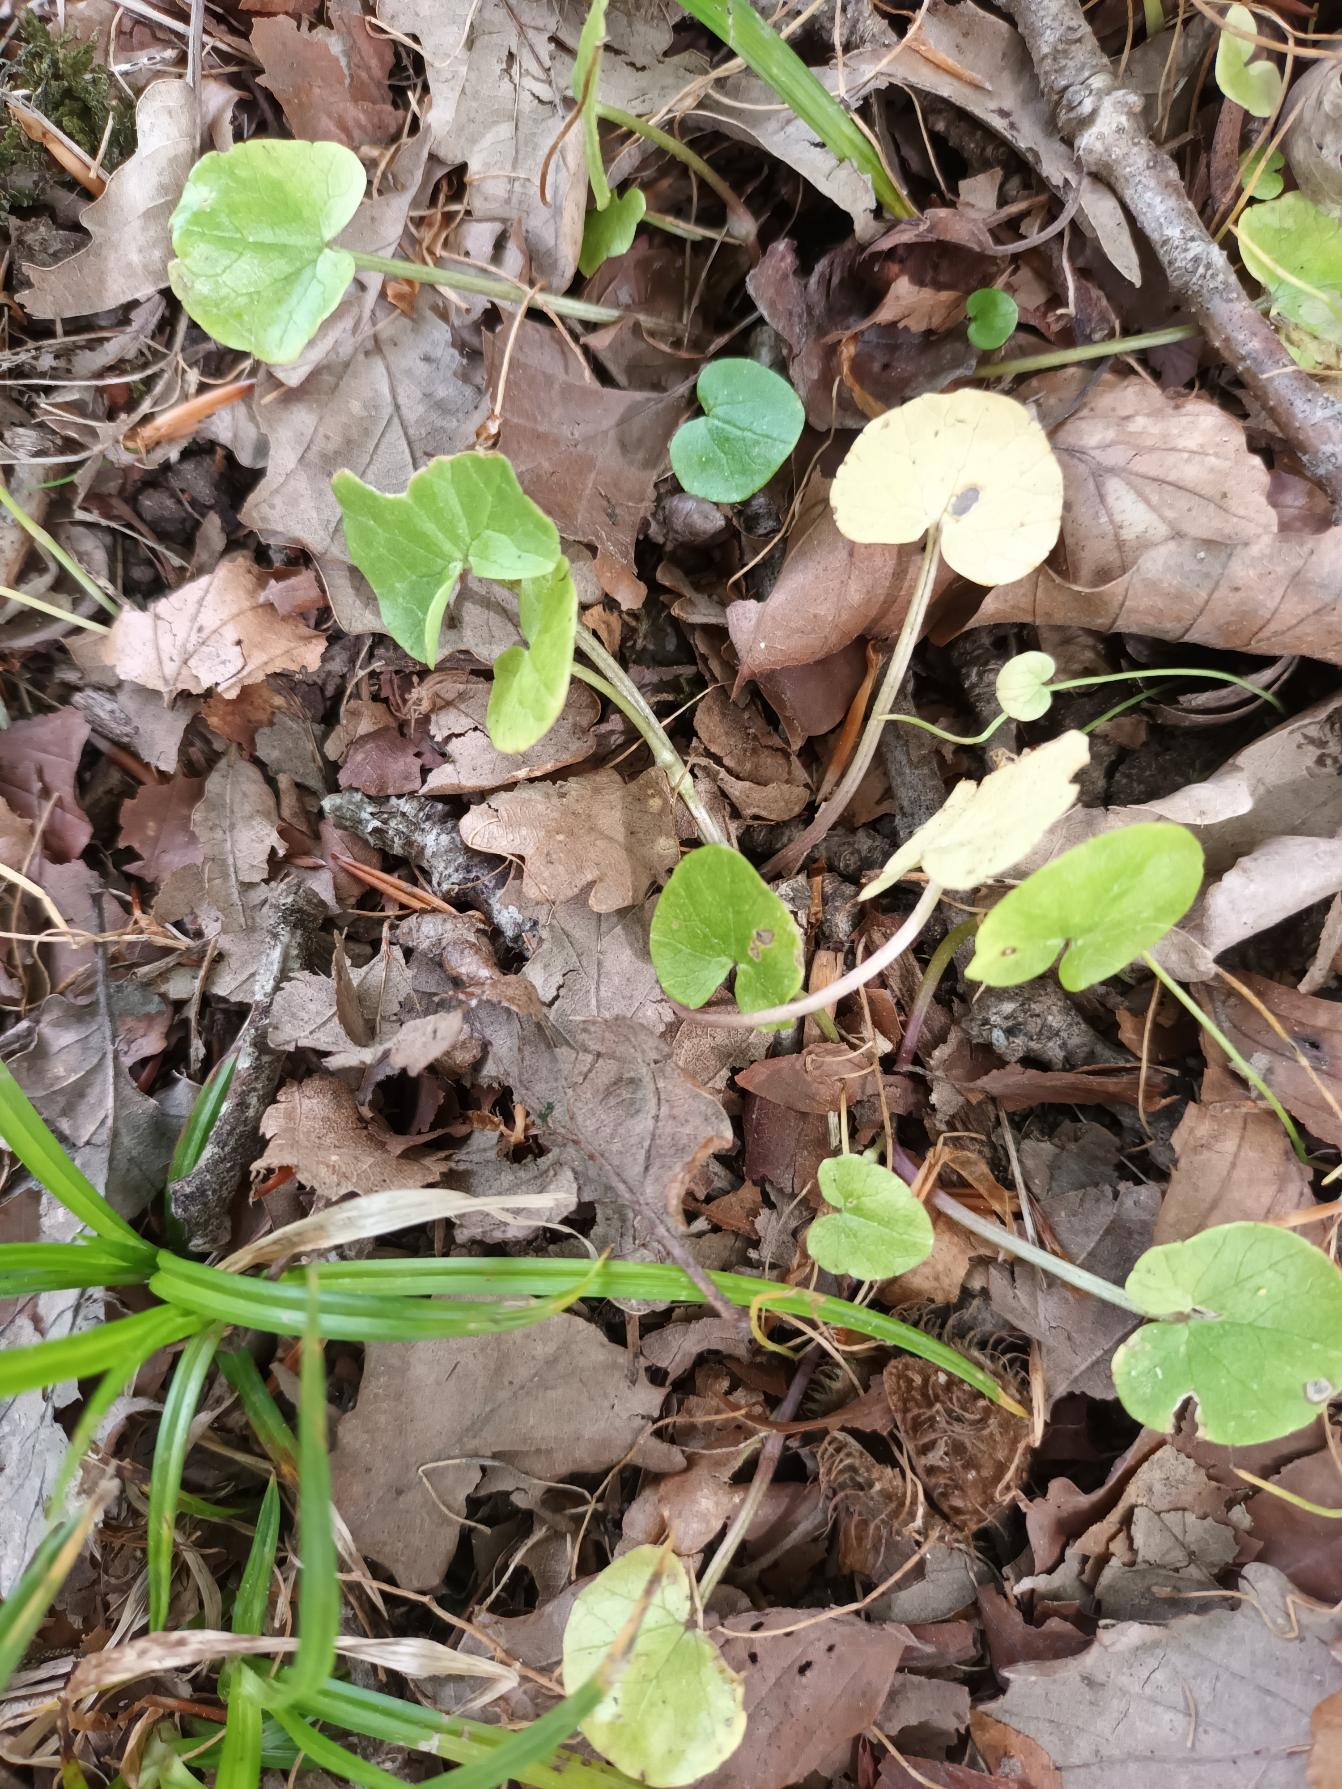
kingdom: Plantae
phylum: Tracheophyta
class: Magnoliopsida
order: Ranunculales
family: Ranunculaceae
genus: Ficaria
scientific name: Ficaria verna
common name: Vorterod
